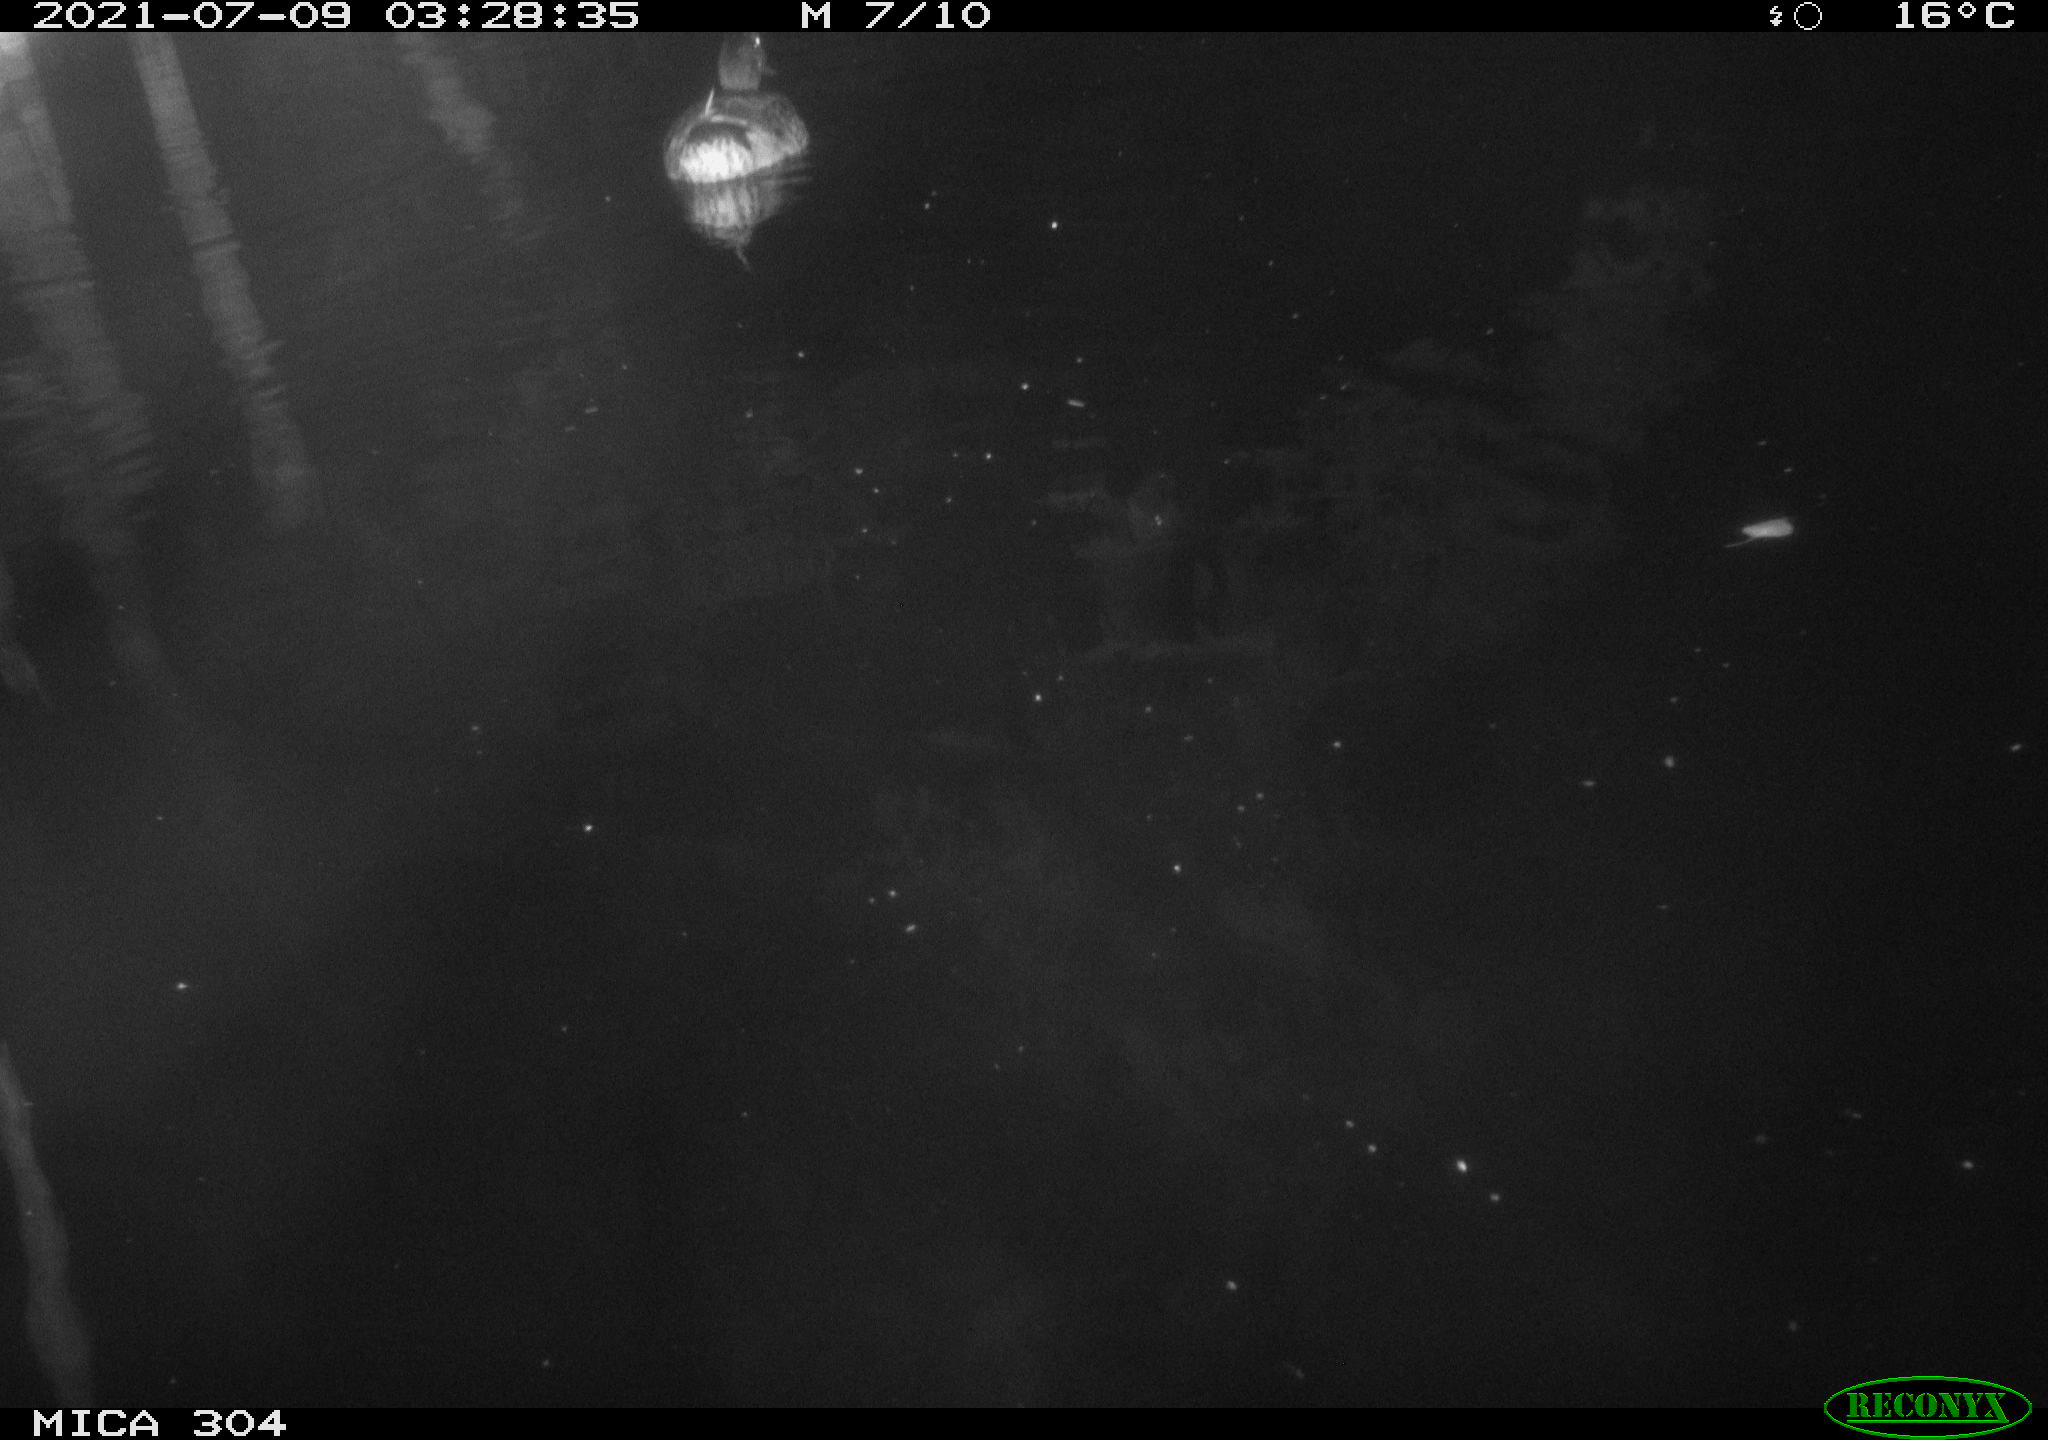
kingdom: Animalia
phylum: Chordata
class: Aves
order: Anseriformes
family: Anatidae
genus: Anas
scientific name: Anas platyrhynchos
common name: Mallard
